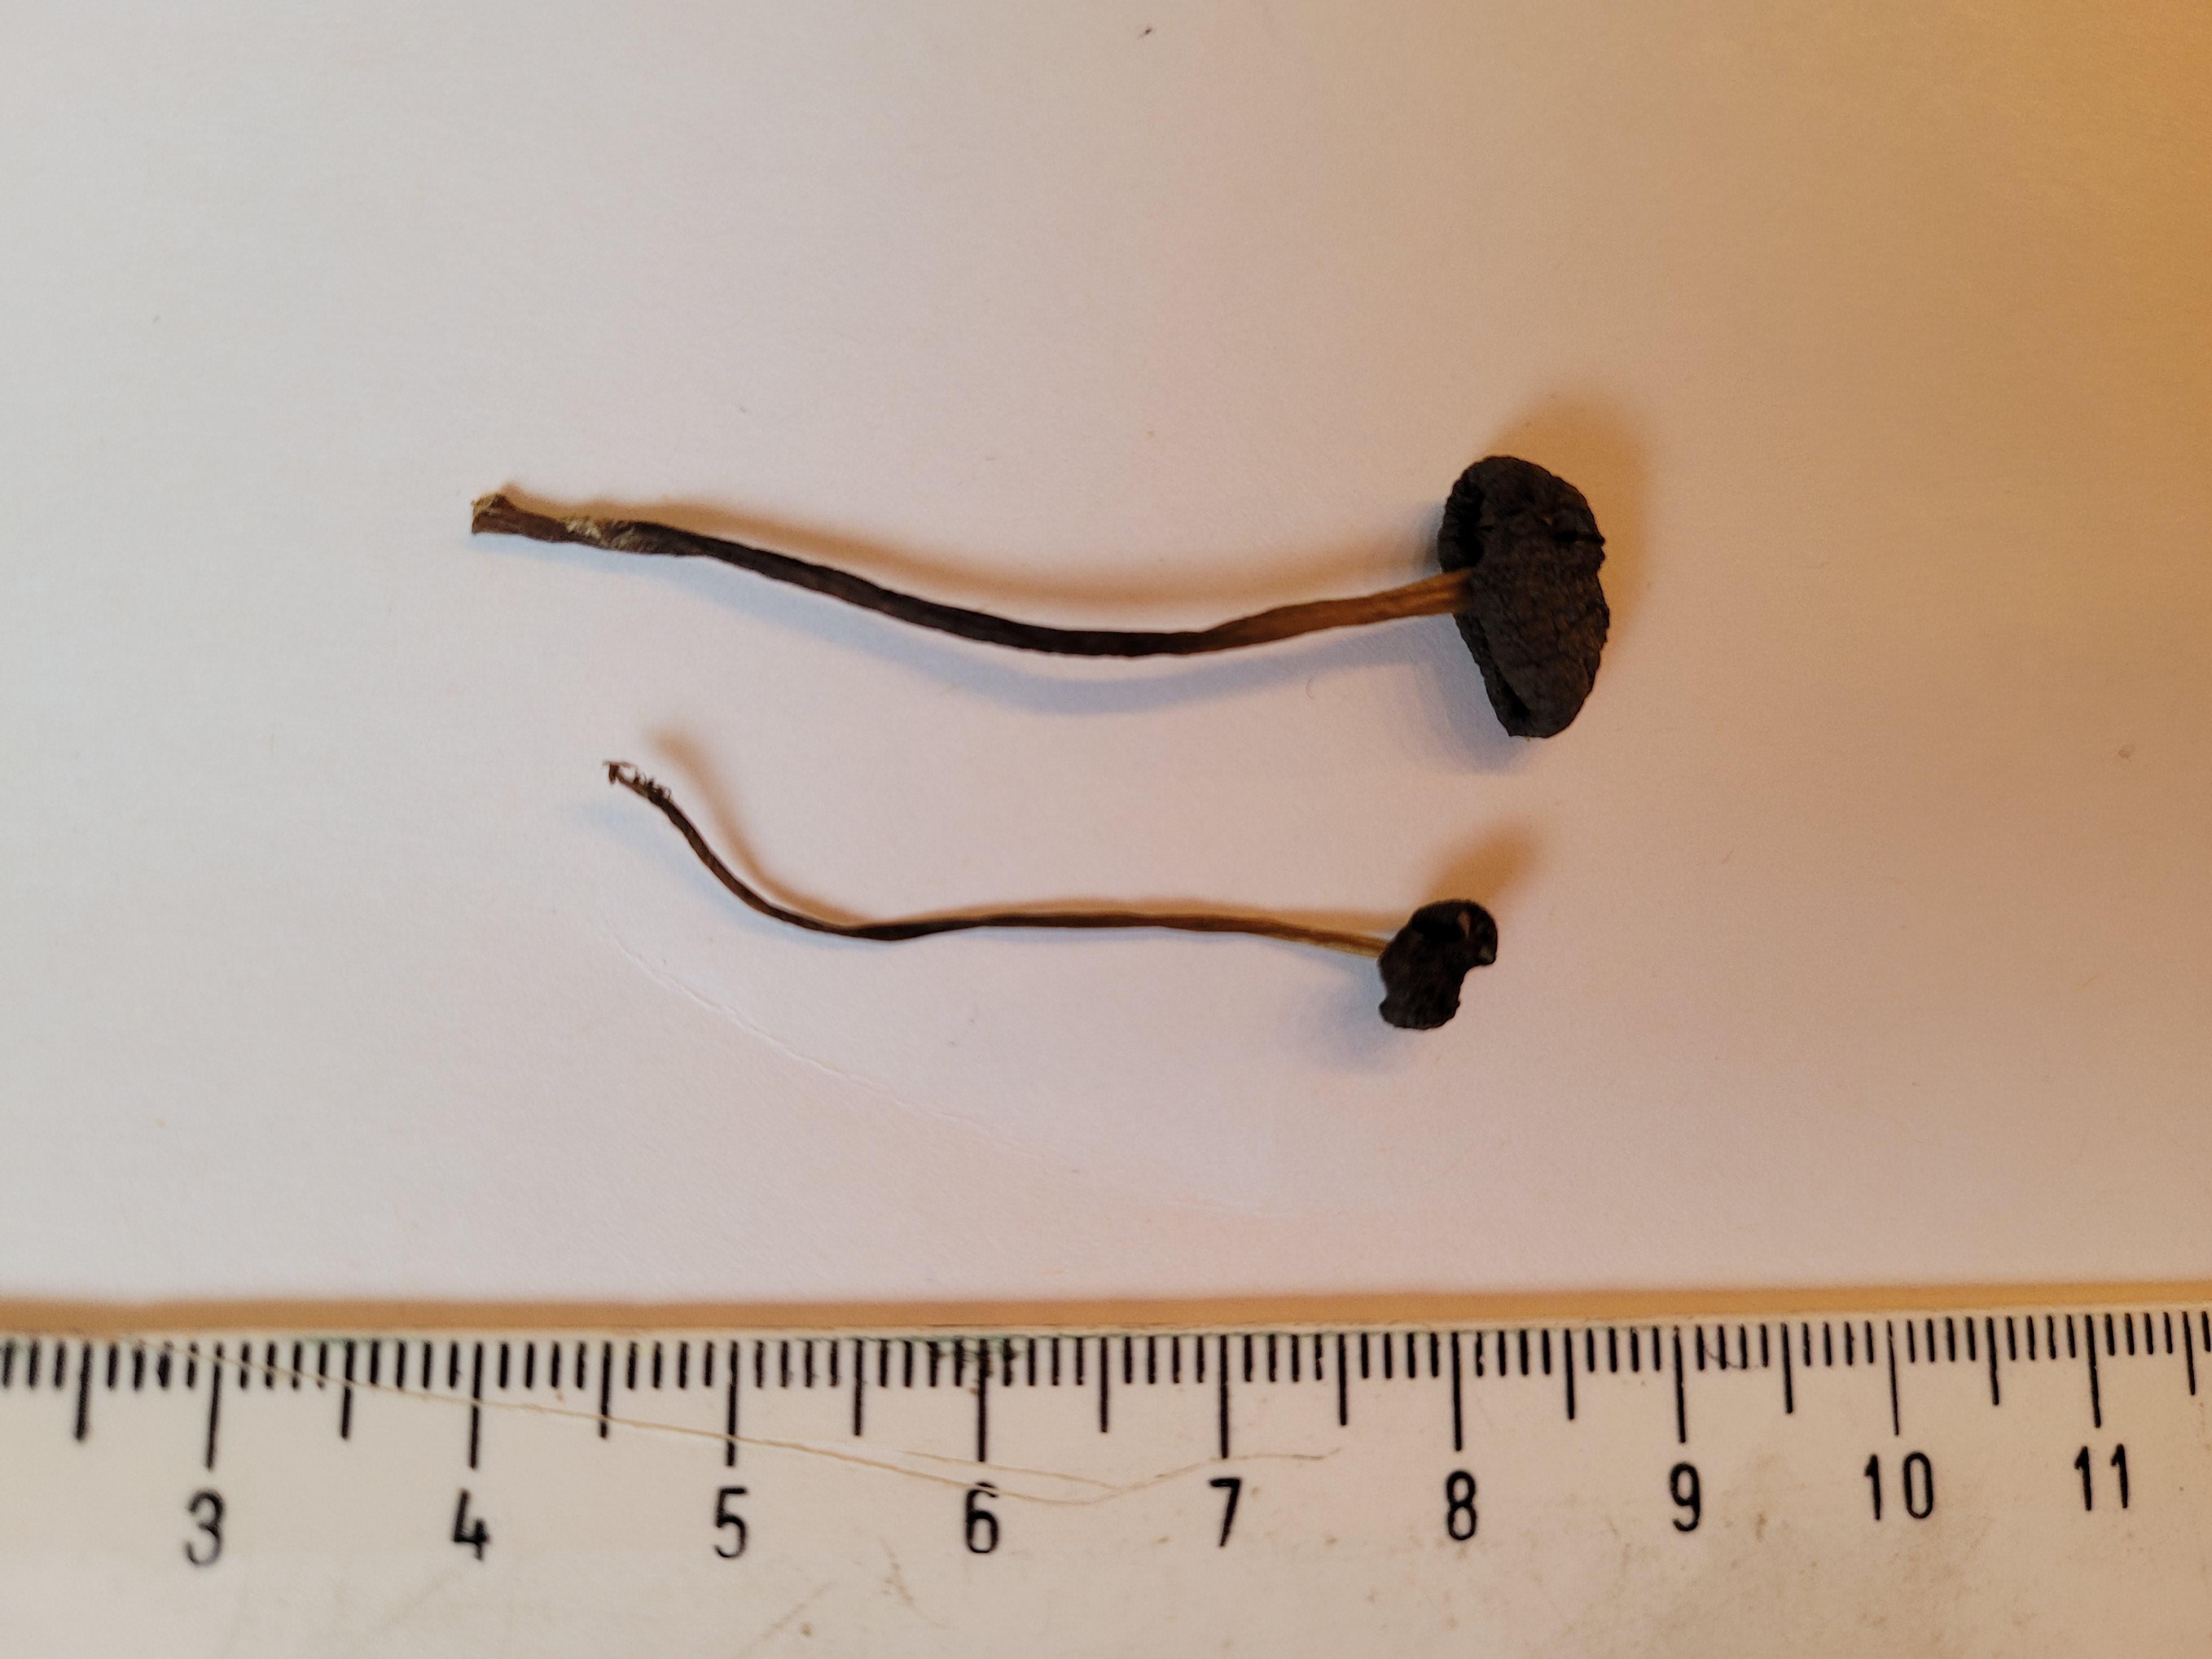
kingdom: Fungi
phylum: Basidiomycota
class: Agaricomycetes
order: Agaricales
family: Entolomataceae
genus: Entoloma
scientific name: Entoloma sororpratulense
